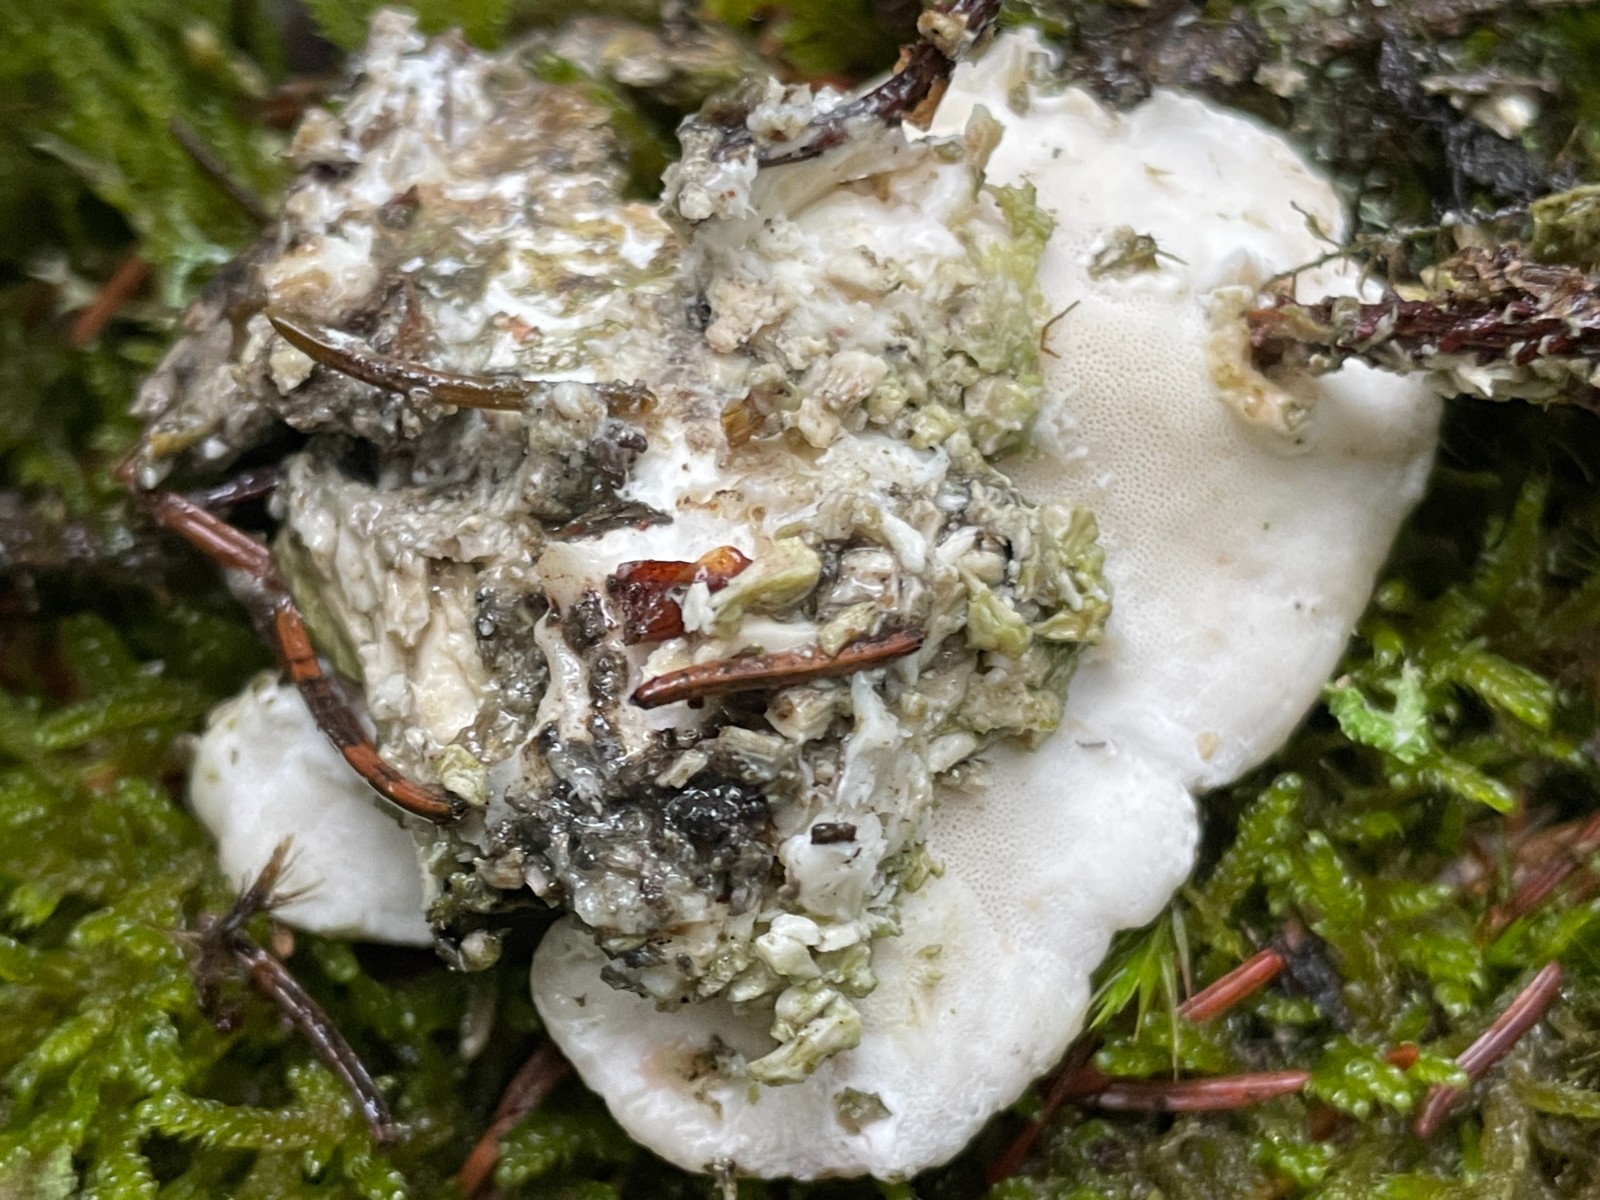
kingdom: Fungi
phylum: Basidiomycota
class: Agaricomycetes
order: Polyporales
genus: Amaropostia
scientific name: Amaropostia stiptica
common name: bitter kødporesvamp
